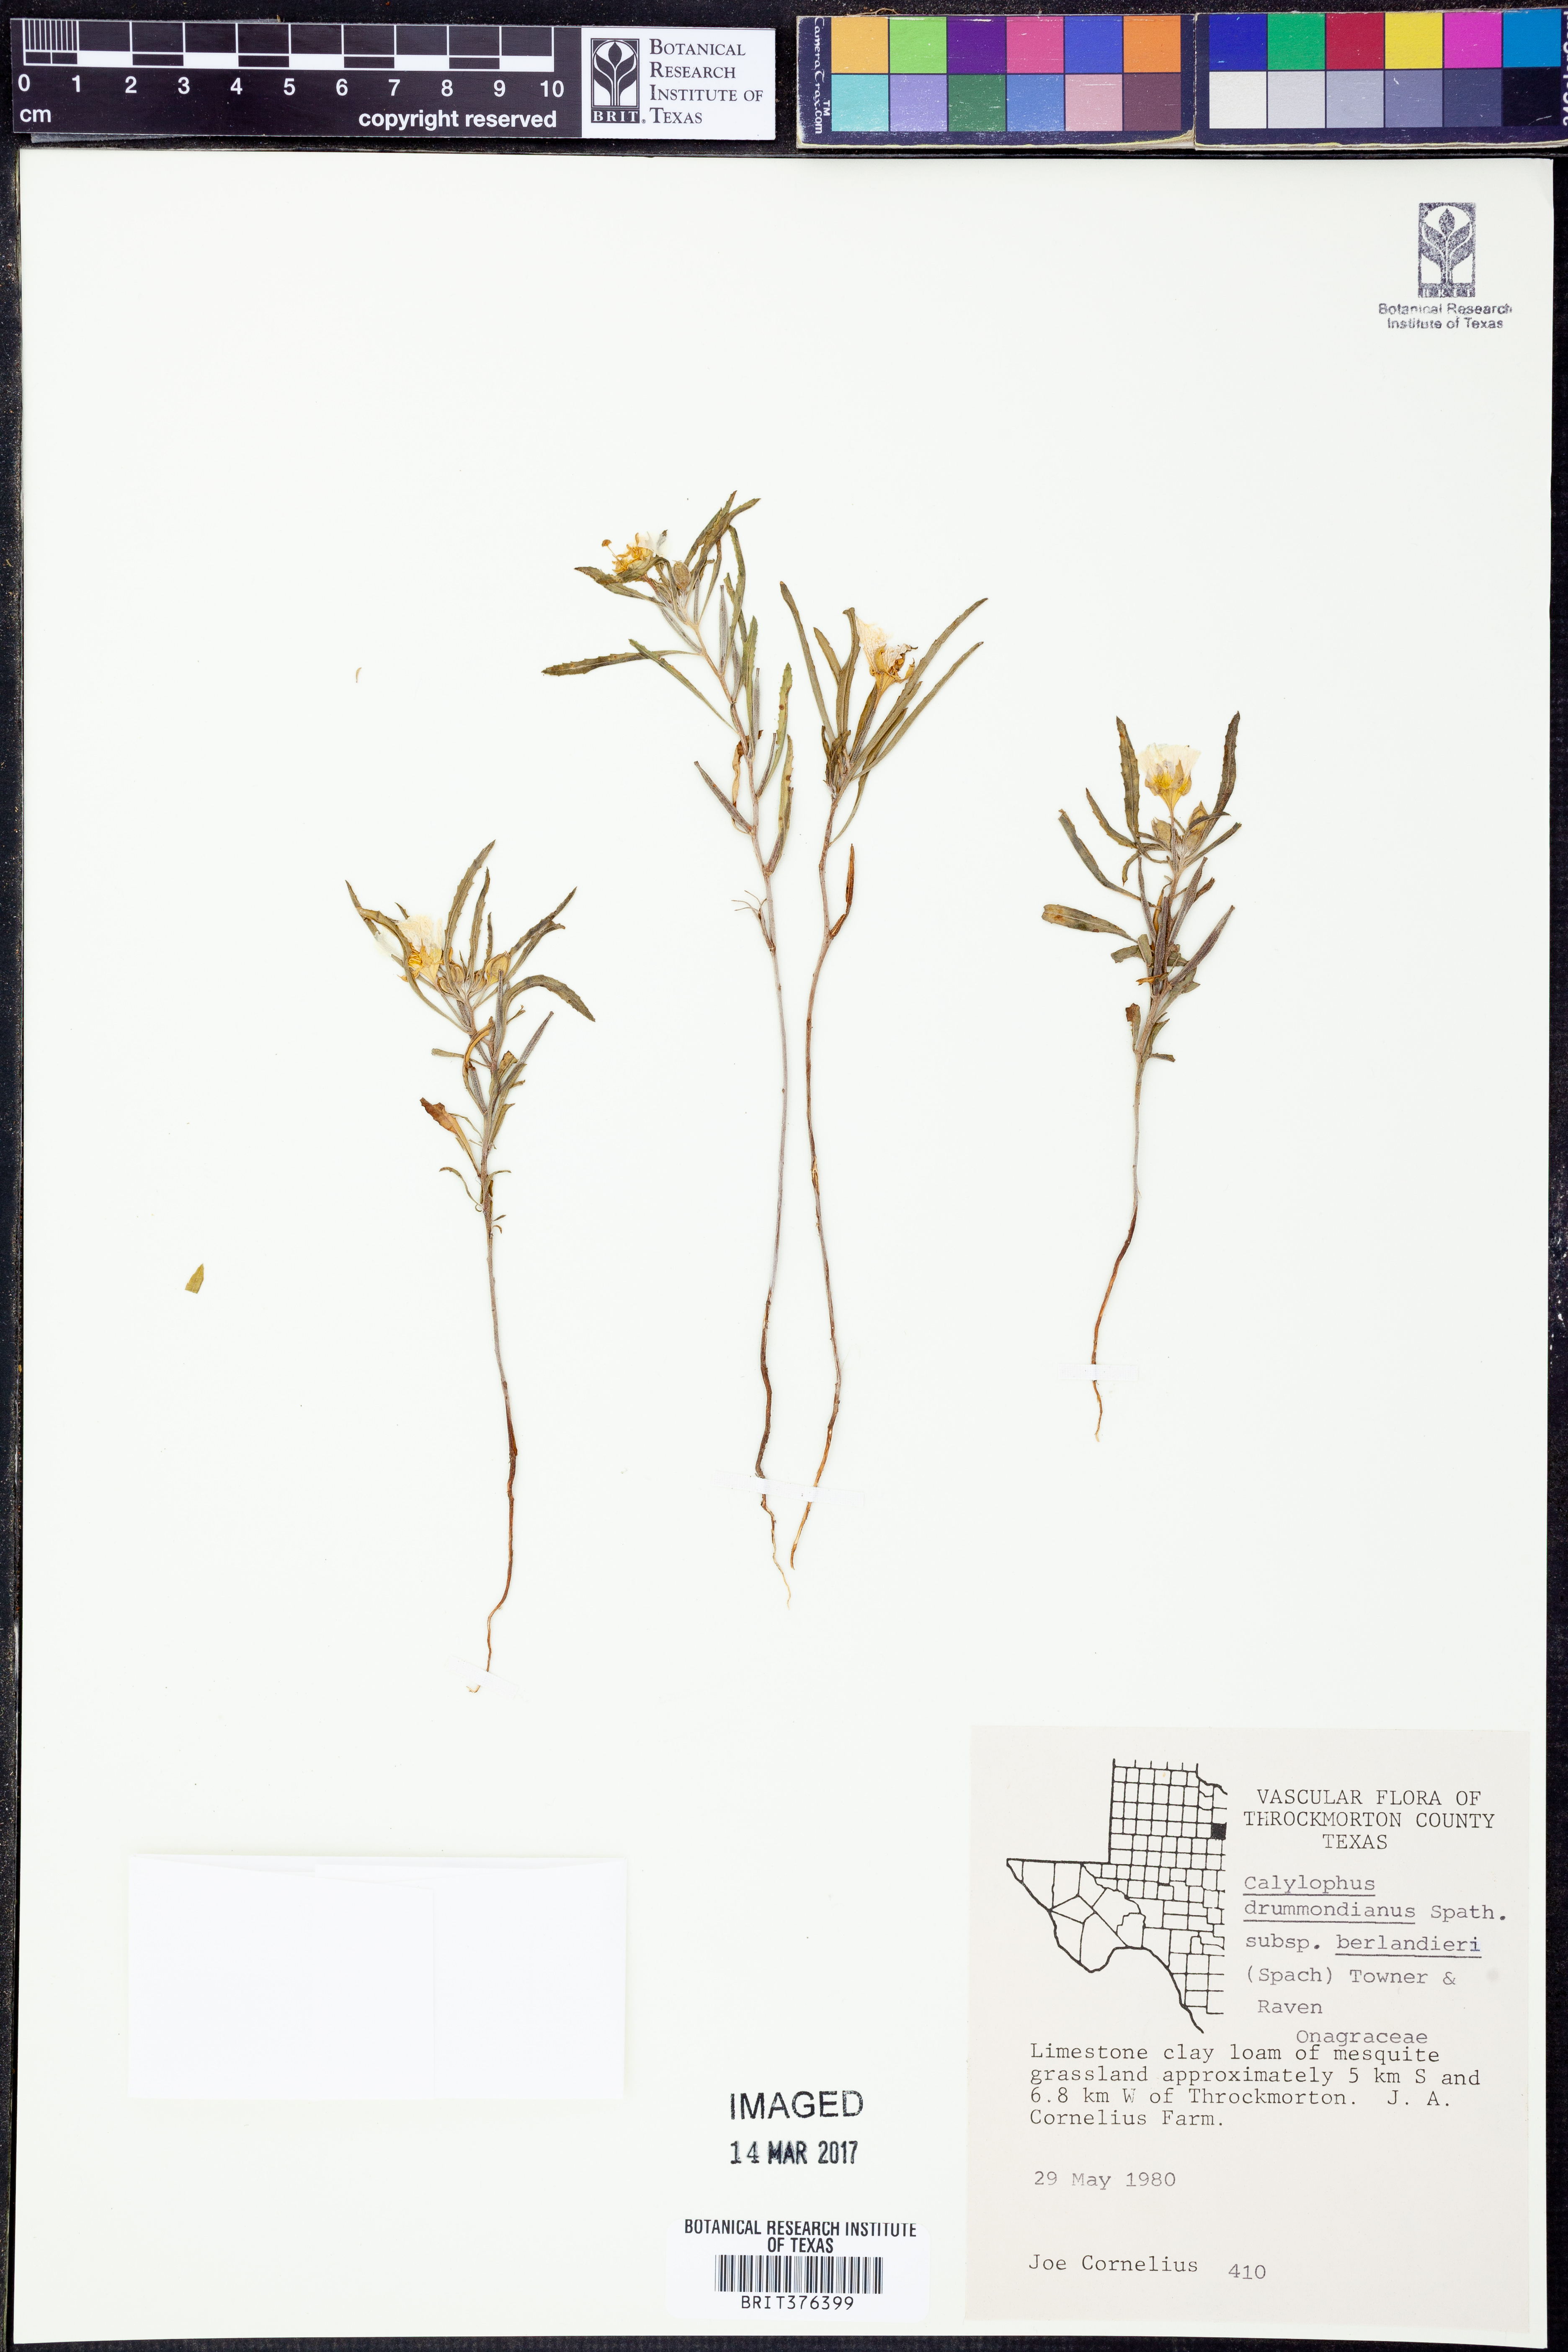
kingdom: Plantae
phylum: Tracheophyta
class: Magnoliopsida
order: Myrtales
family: Onagraceae
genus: Oenothera
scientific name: Oenothera capillifolia
